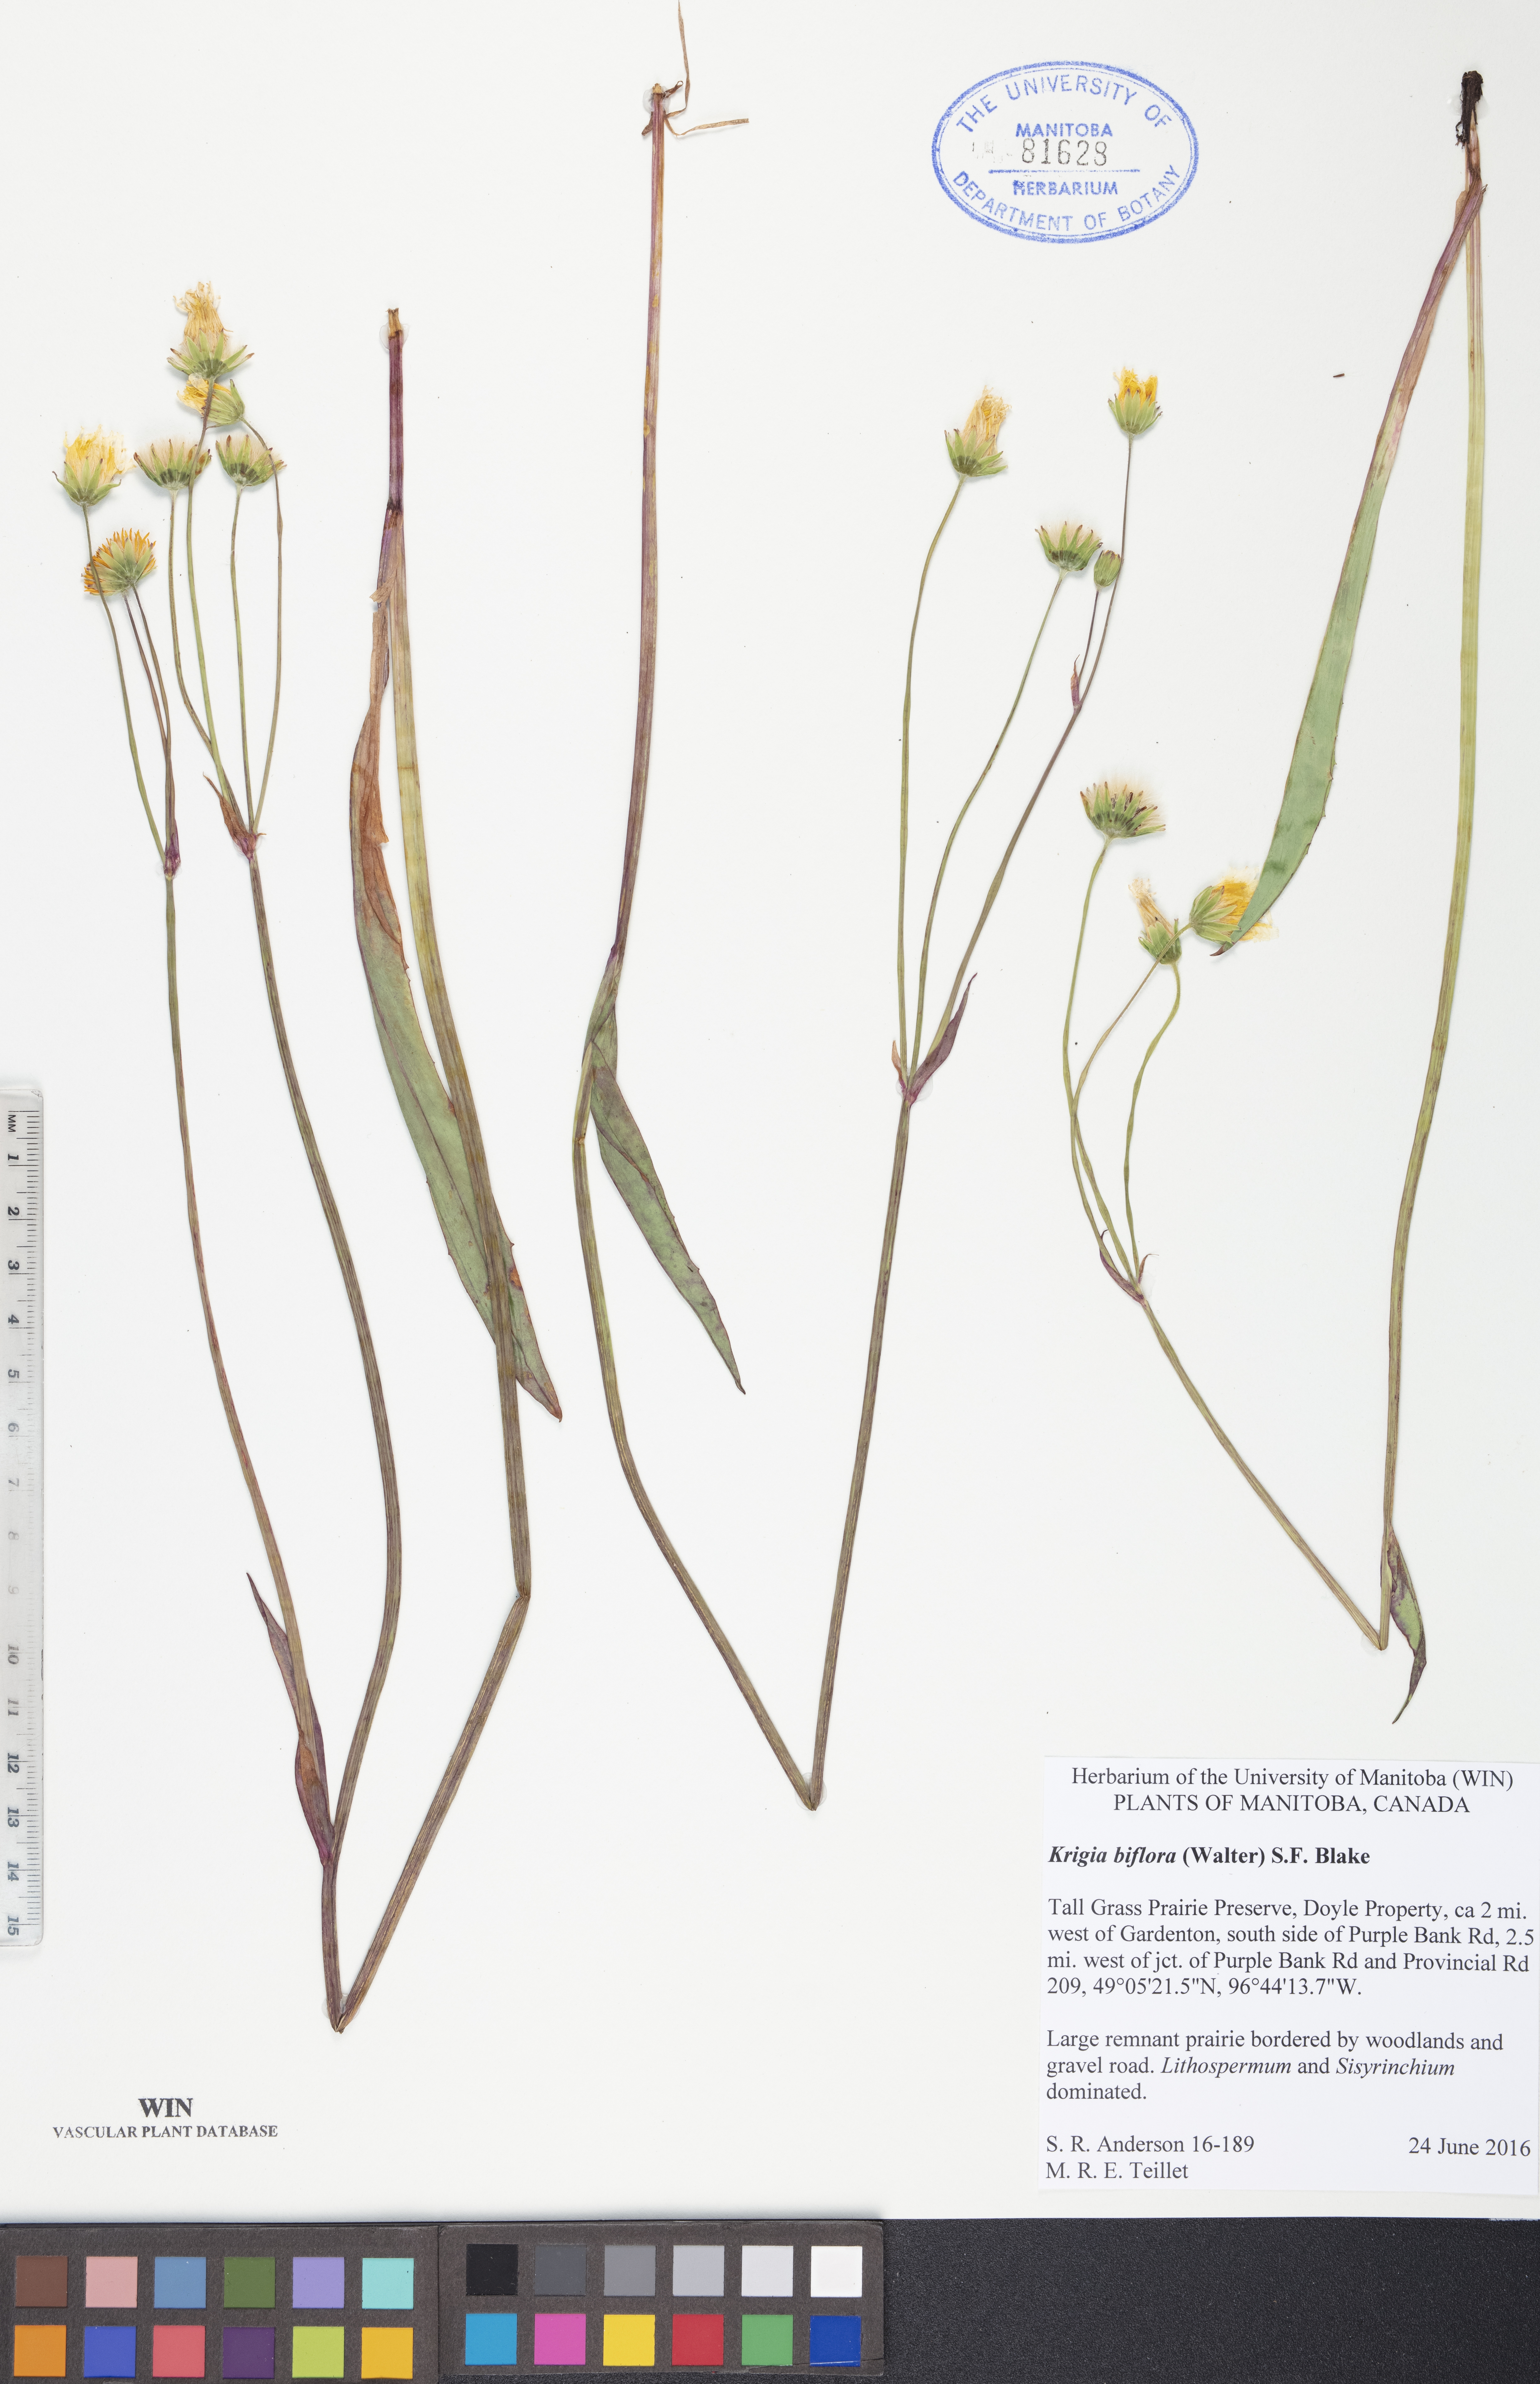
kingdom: Plantae
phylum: Tracheophyta
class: Magnoliopsida
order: Asterales
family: Asteraceae
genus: Krigia
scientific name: Krigia biflora
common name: Orange dwarf-dandelion
